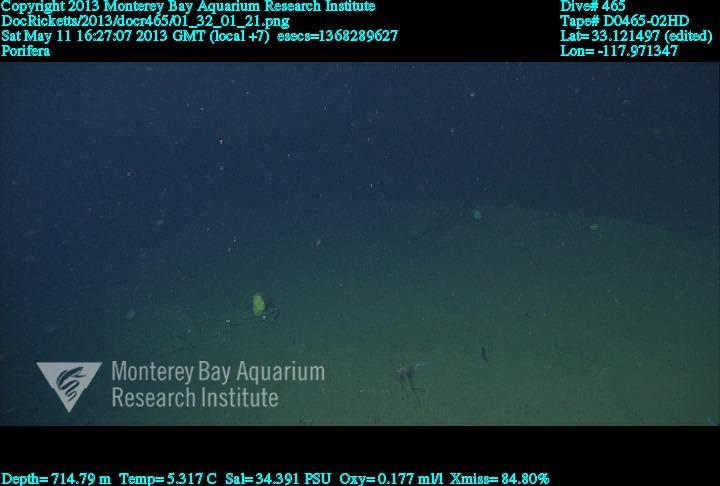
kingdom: Animalia
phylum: Porifera
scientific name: Porifera
